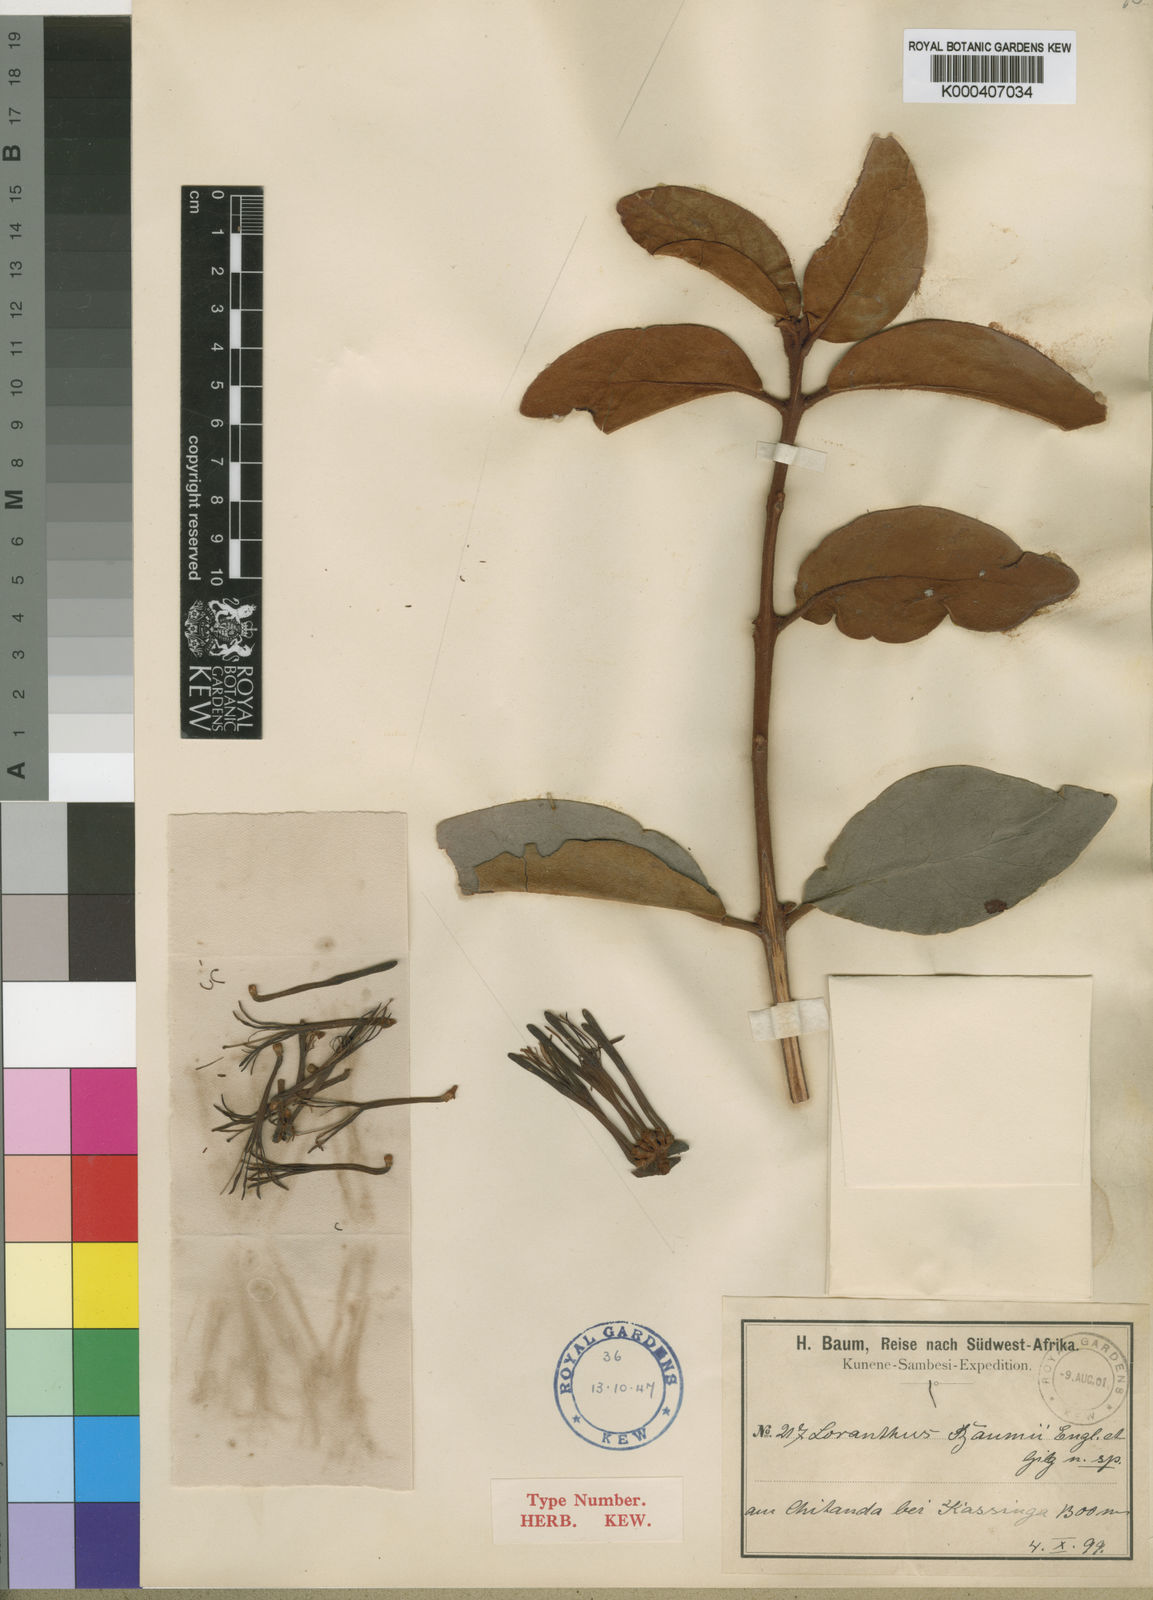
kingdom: Plantae
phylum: Tracheophyta
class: Magnoliopsida
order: Santalales
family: Loranthaceae
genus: Phragmanthera
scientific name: Phragmanthera baumii
